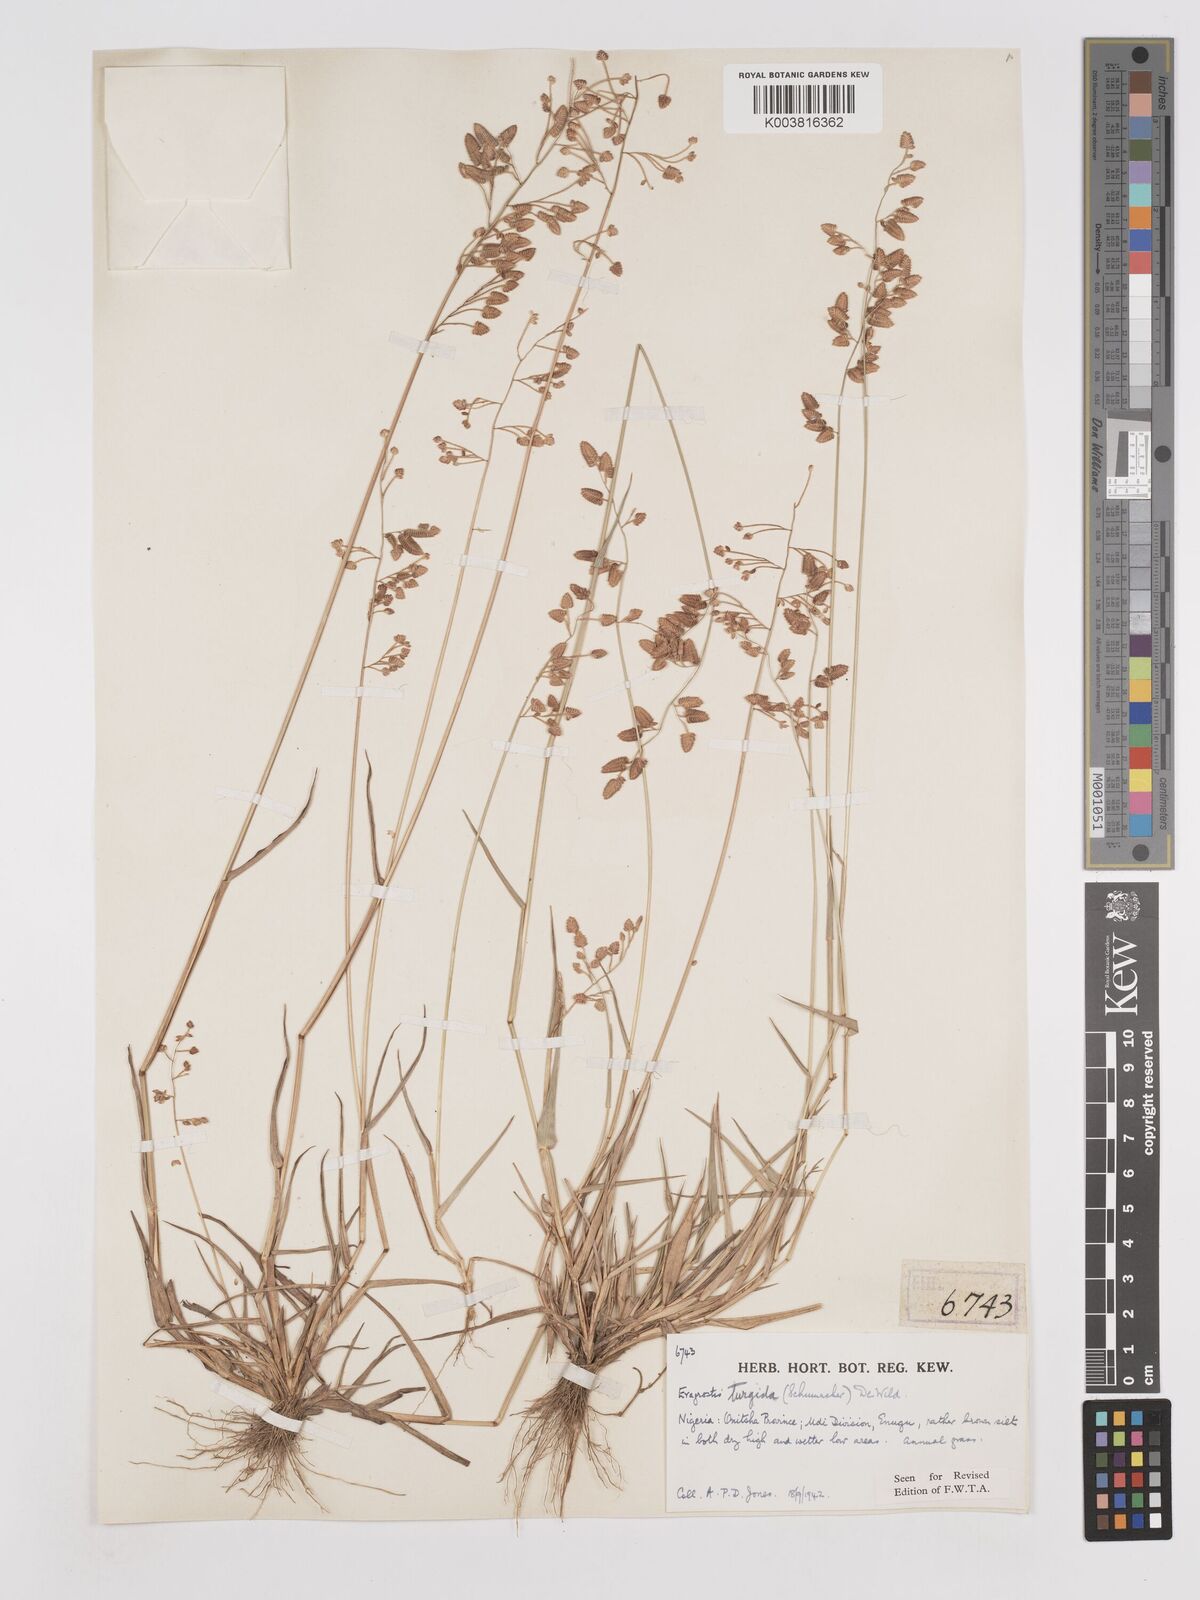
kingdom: Plantae
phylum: Tracheophyta
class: Liliopsida
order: Poales
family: Poaceae
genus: Eragrostis
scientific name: Eragrostis turgida
